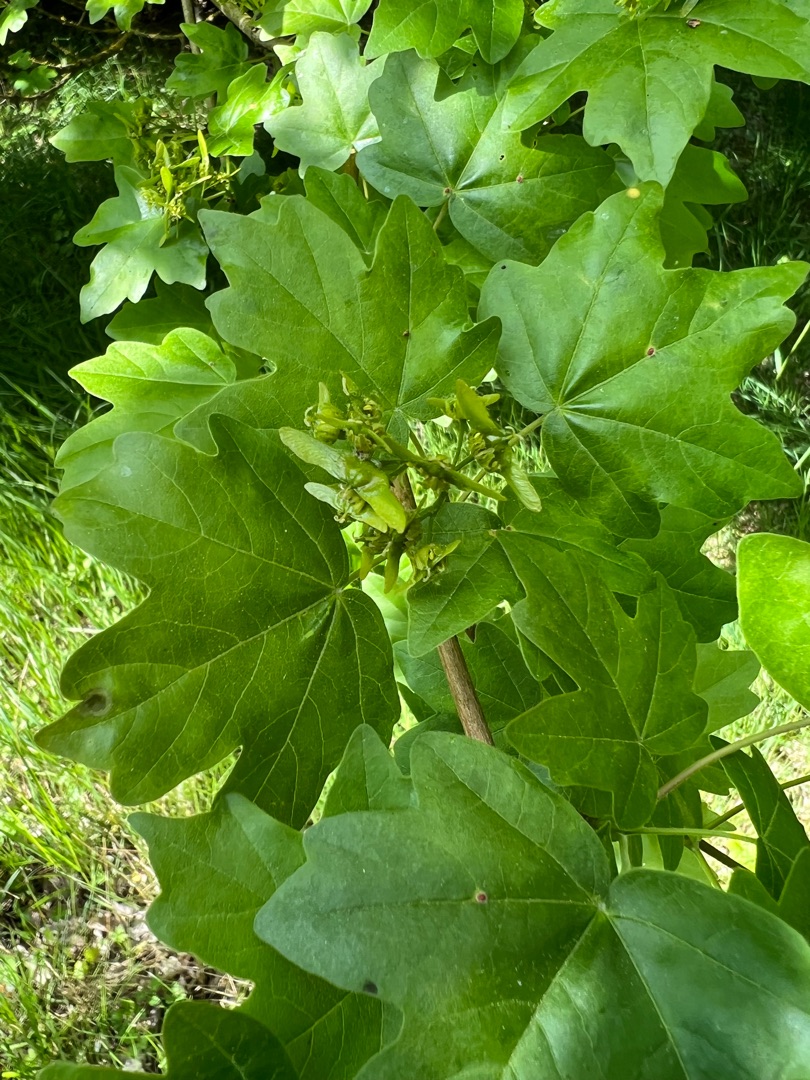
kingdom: Plantae
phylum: Tracheophyta
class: Magnoliopsida
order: Sapindales
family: Sapindaceae
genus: Acer
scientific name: Acer campestre
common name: Navr
